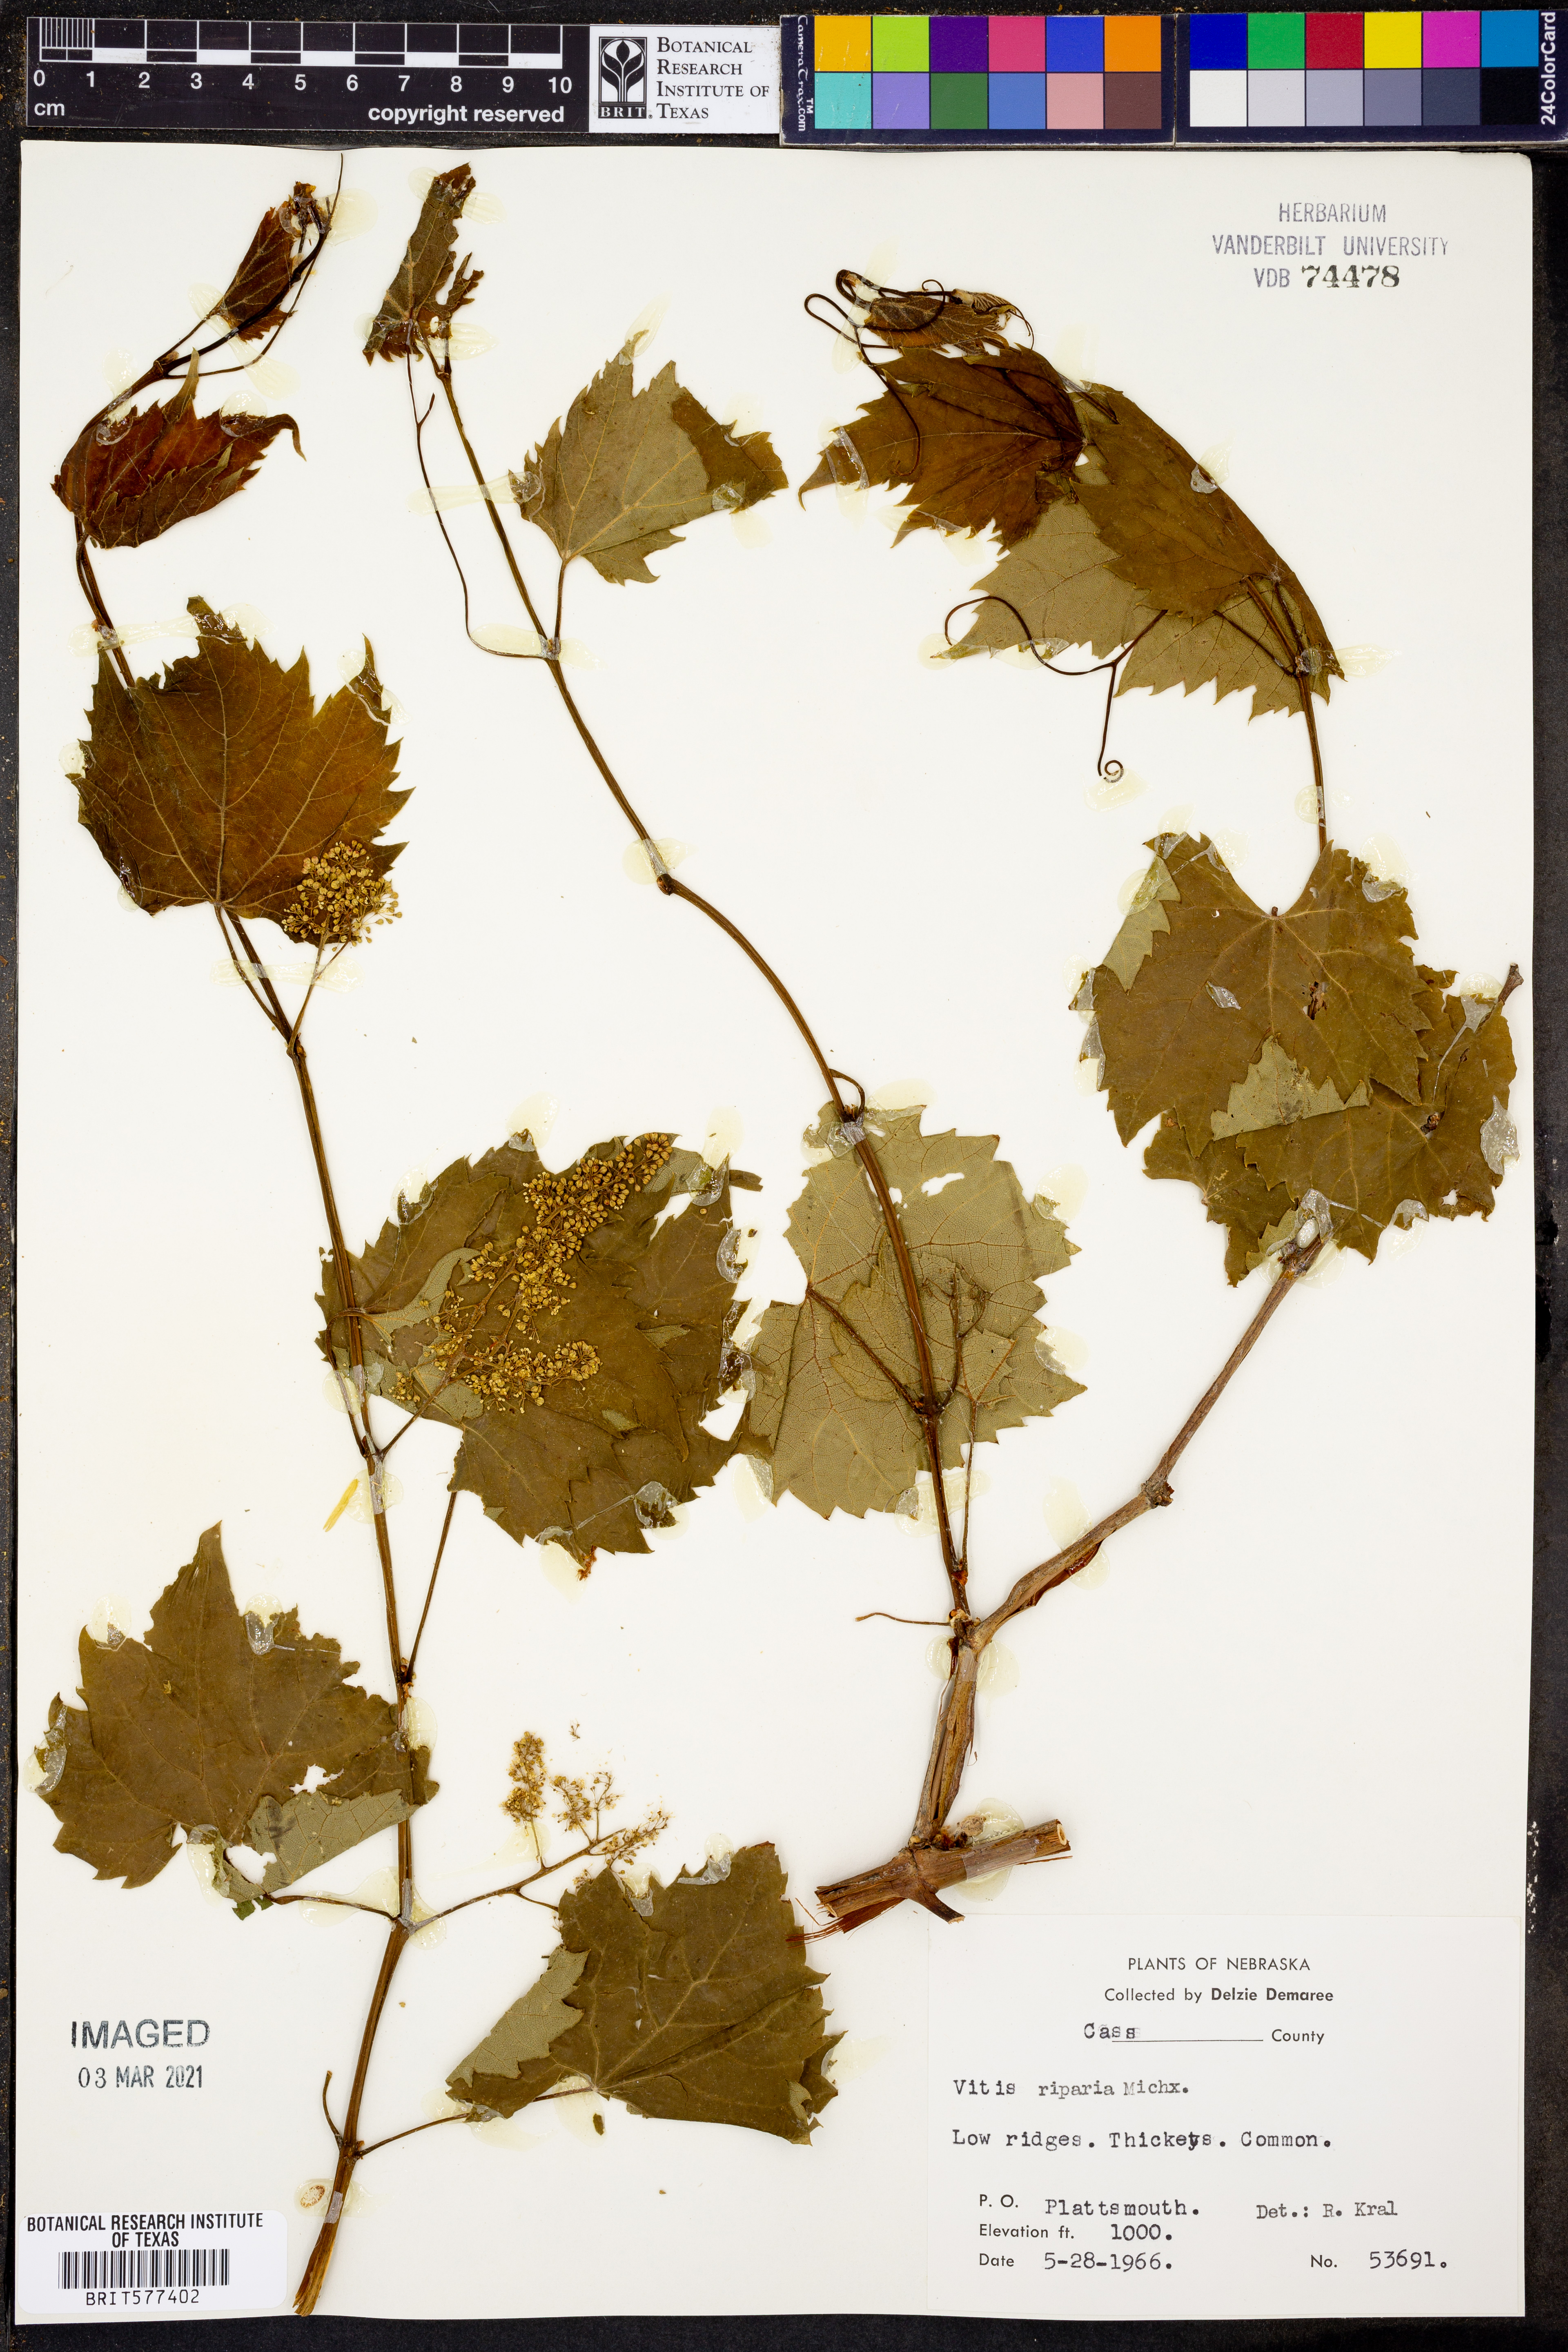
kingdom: Plantae
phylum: Tracheophyta
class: Magnoliopsida
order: Vitales
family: Vitaceae
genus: Vitis
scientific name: Vitis riparia
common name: Frost grape
